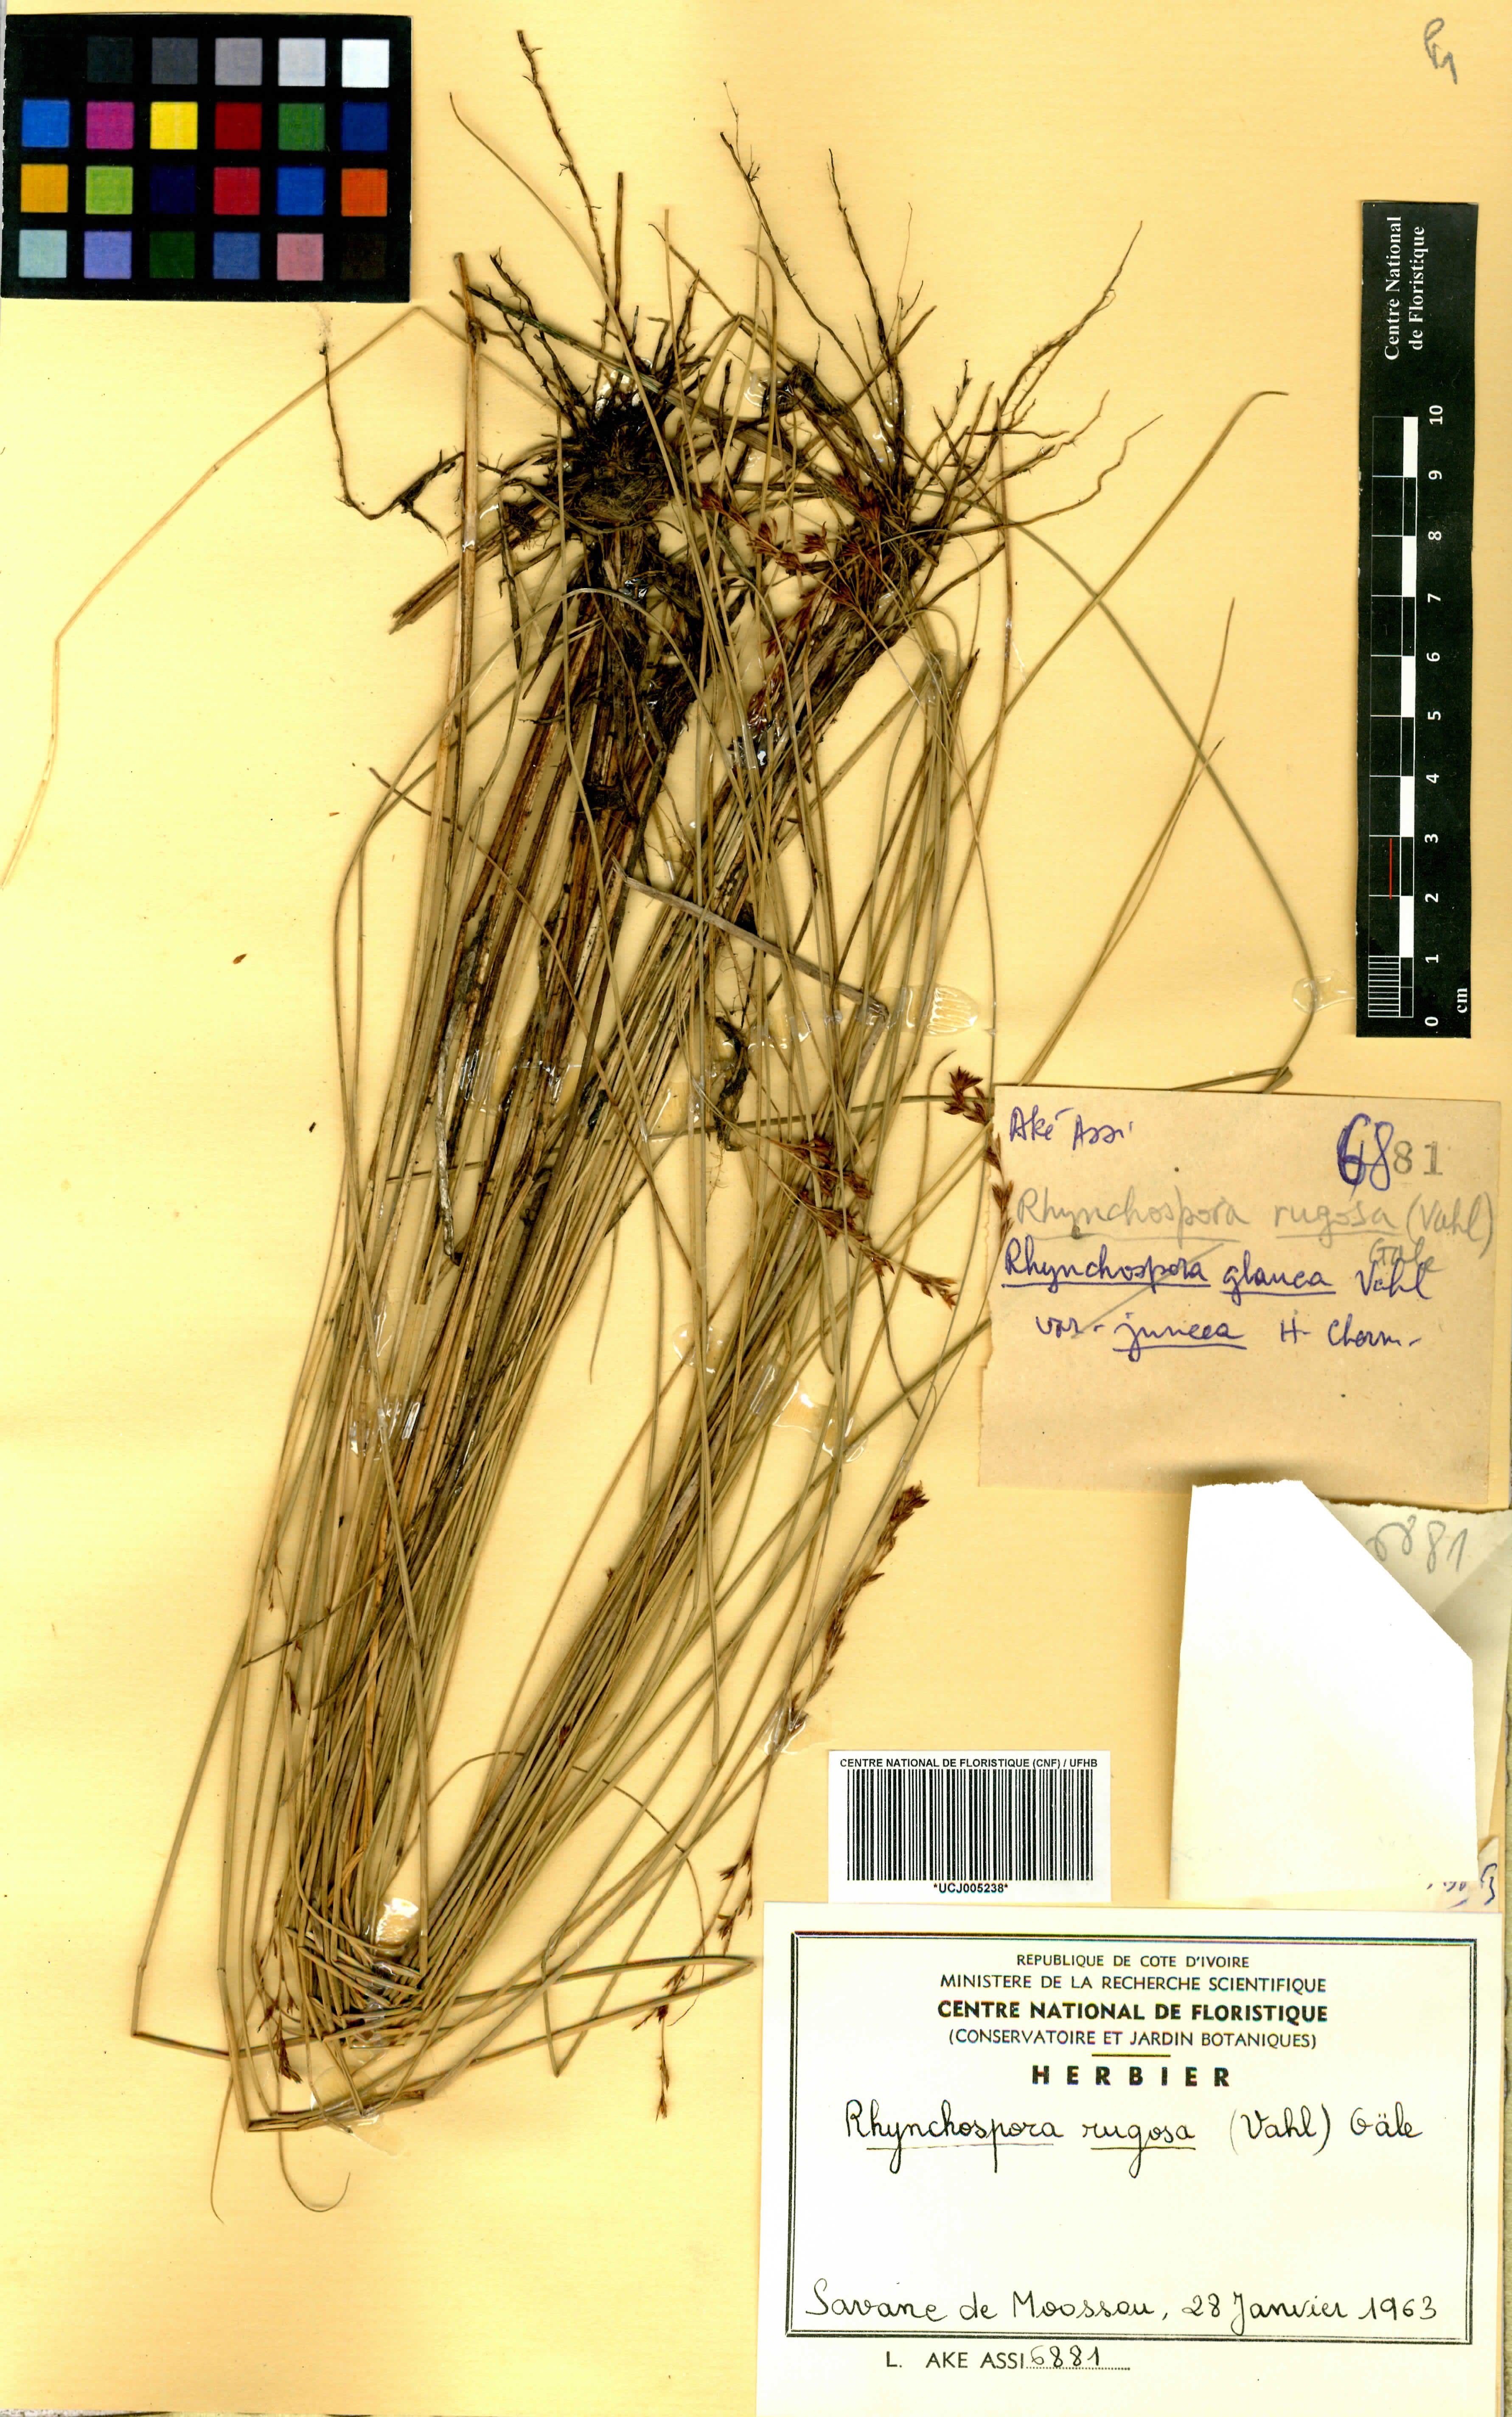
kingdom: Plantae
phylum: Tracheophyta
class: Liliopsida
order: Poales
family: Cyperaceae
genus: Rhynchospora
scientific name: Rhynchospora rugosa
